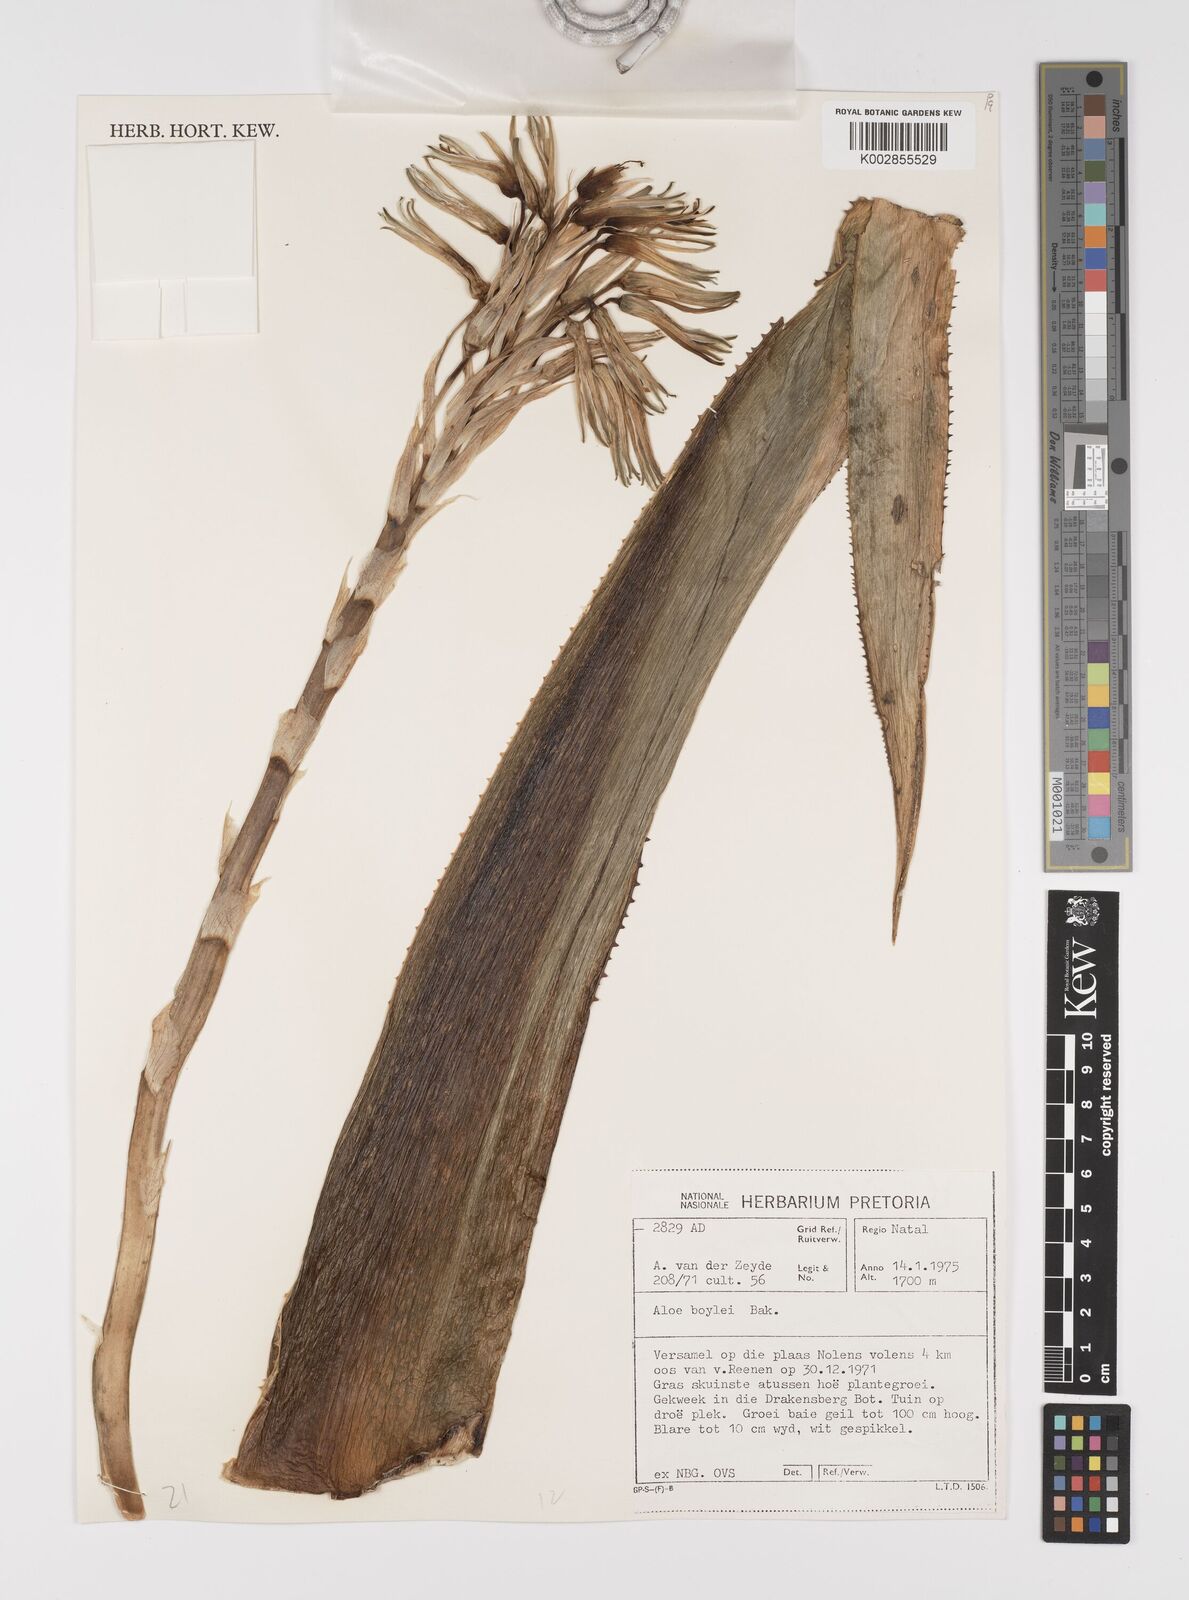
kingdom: Plantae
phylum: Tracheophyta
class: Liliopsida
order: Asparagales
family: Asphodelaceae
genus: Aloe
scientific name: Aloe boylei
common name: Broad-leaved grass aloe
